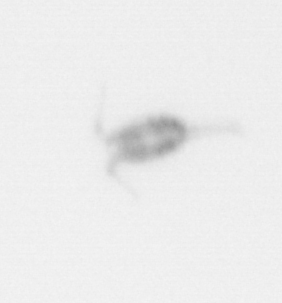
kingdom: Animalia
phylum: Arthropoda
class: Copepoda
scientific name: Copepoda
